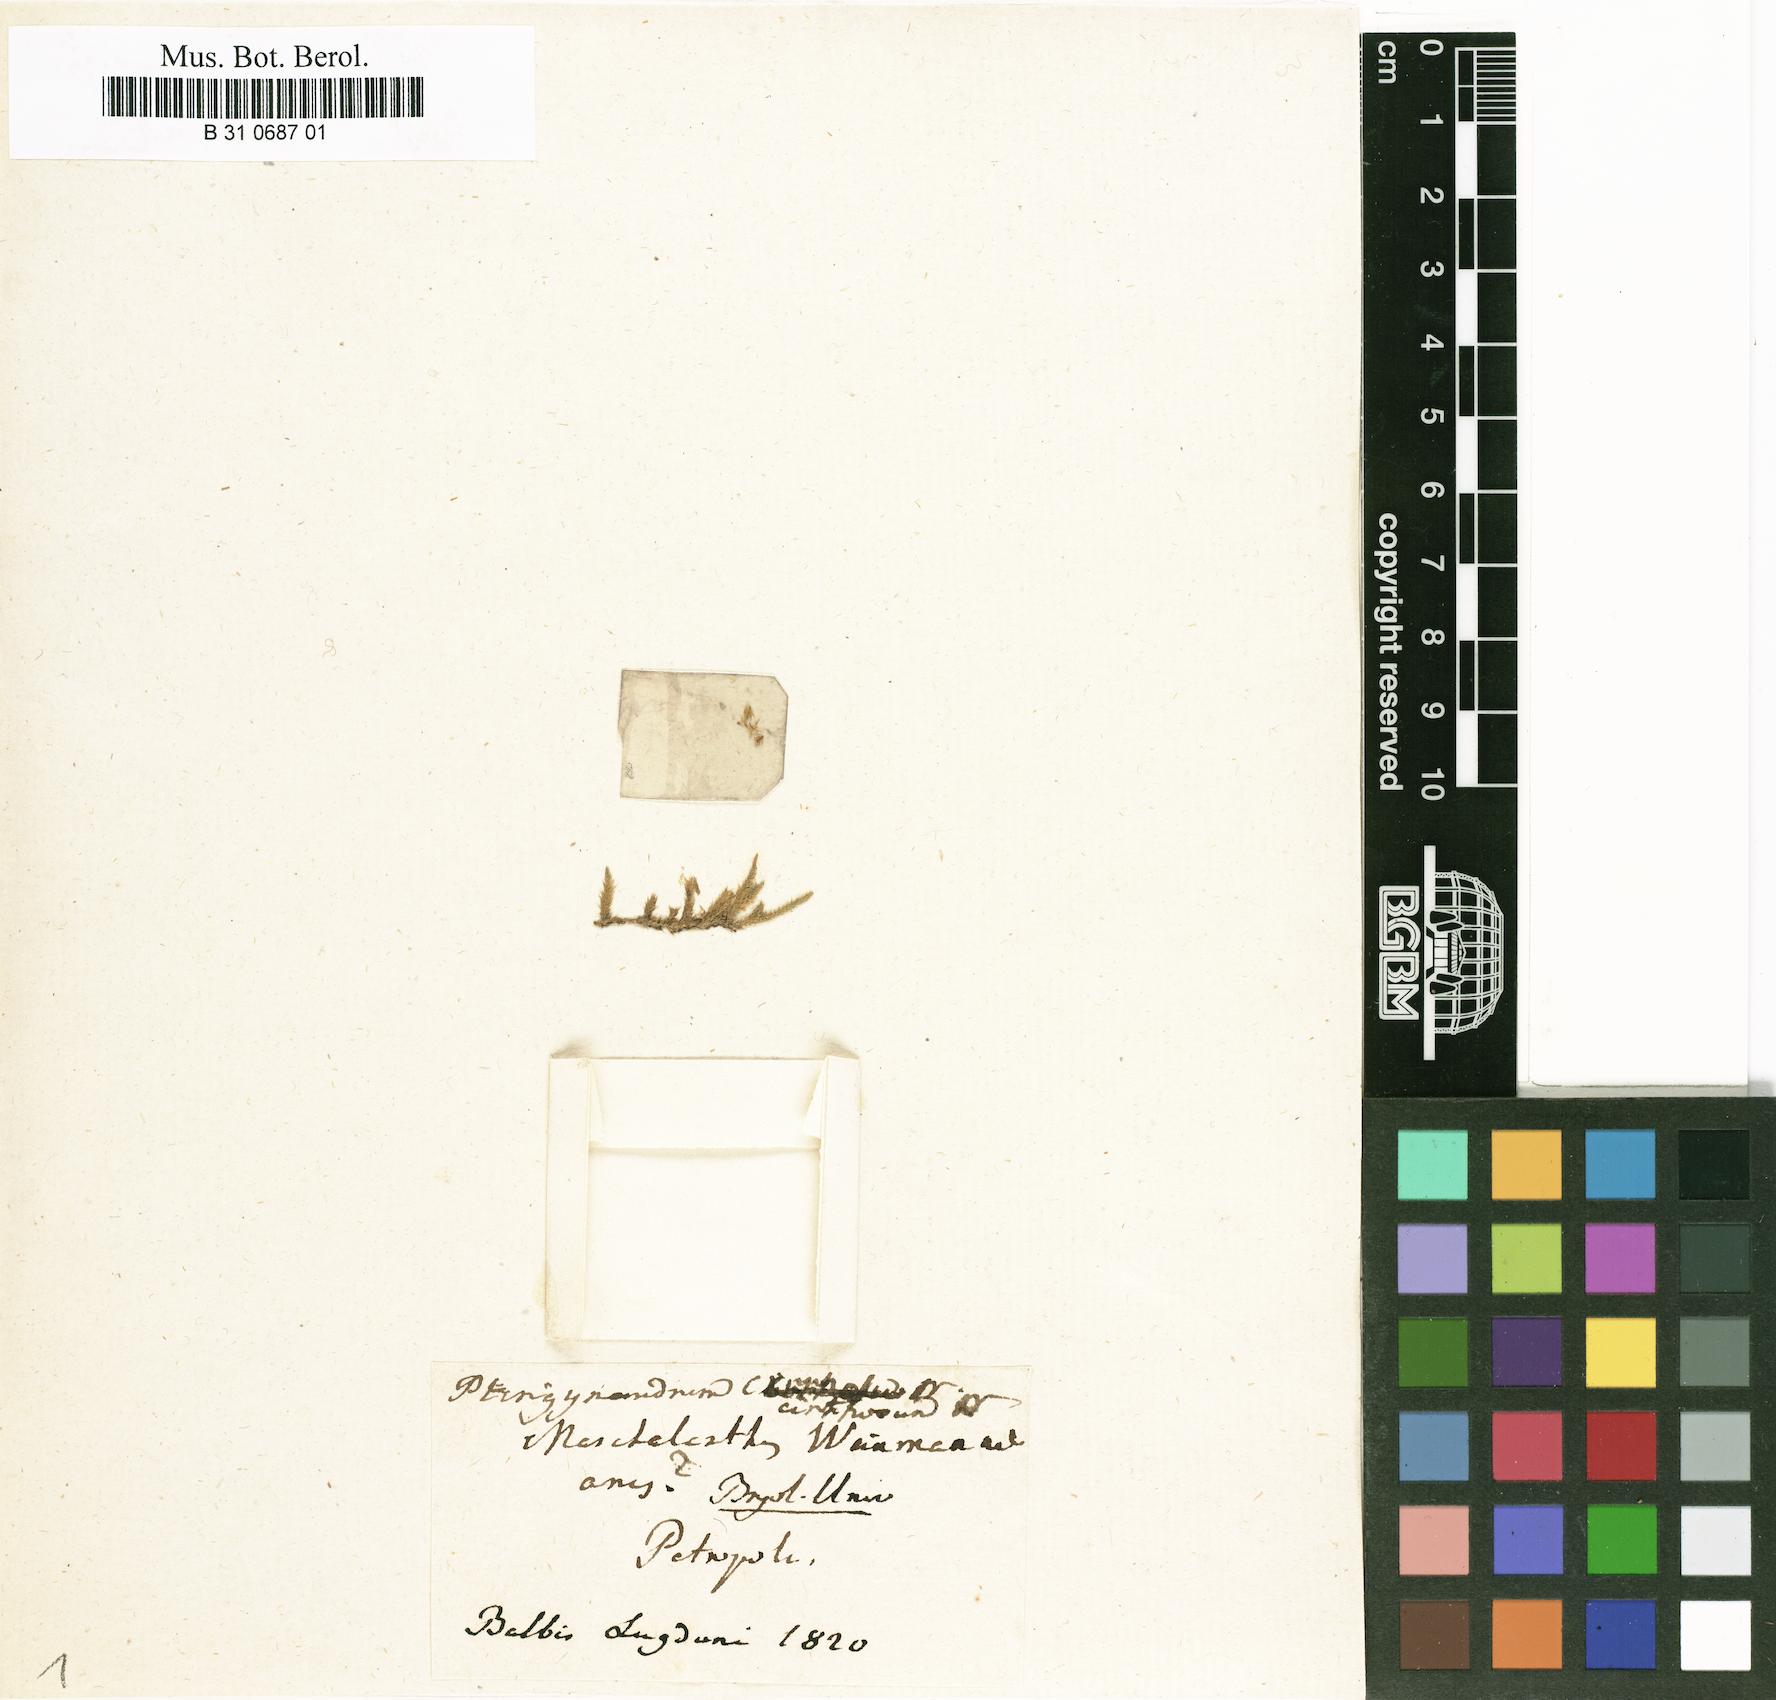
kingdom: Plantae
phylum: Bryophyta
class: Bryopsida
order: Hypnales
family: Brachytheciaceae
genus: Brachythecium
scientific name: Brachythecium albicans
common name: Whitish ragged moss
